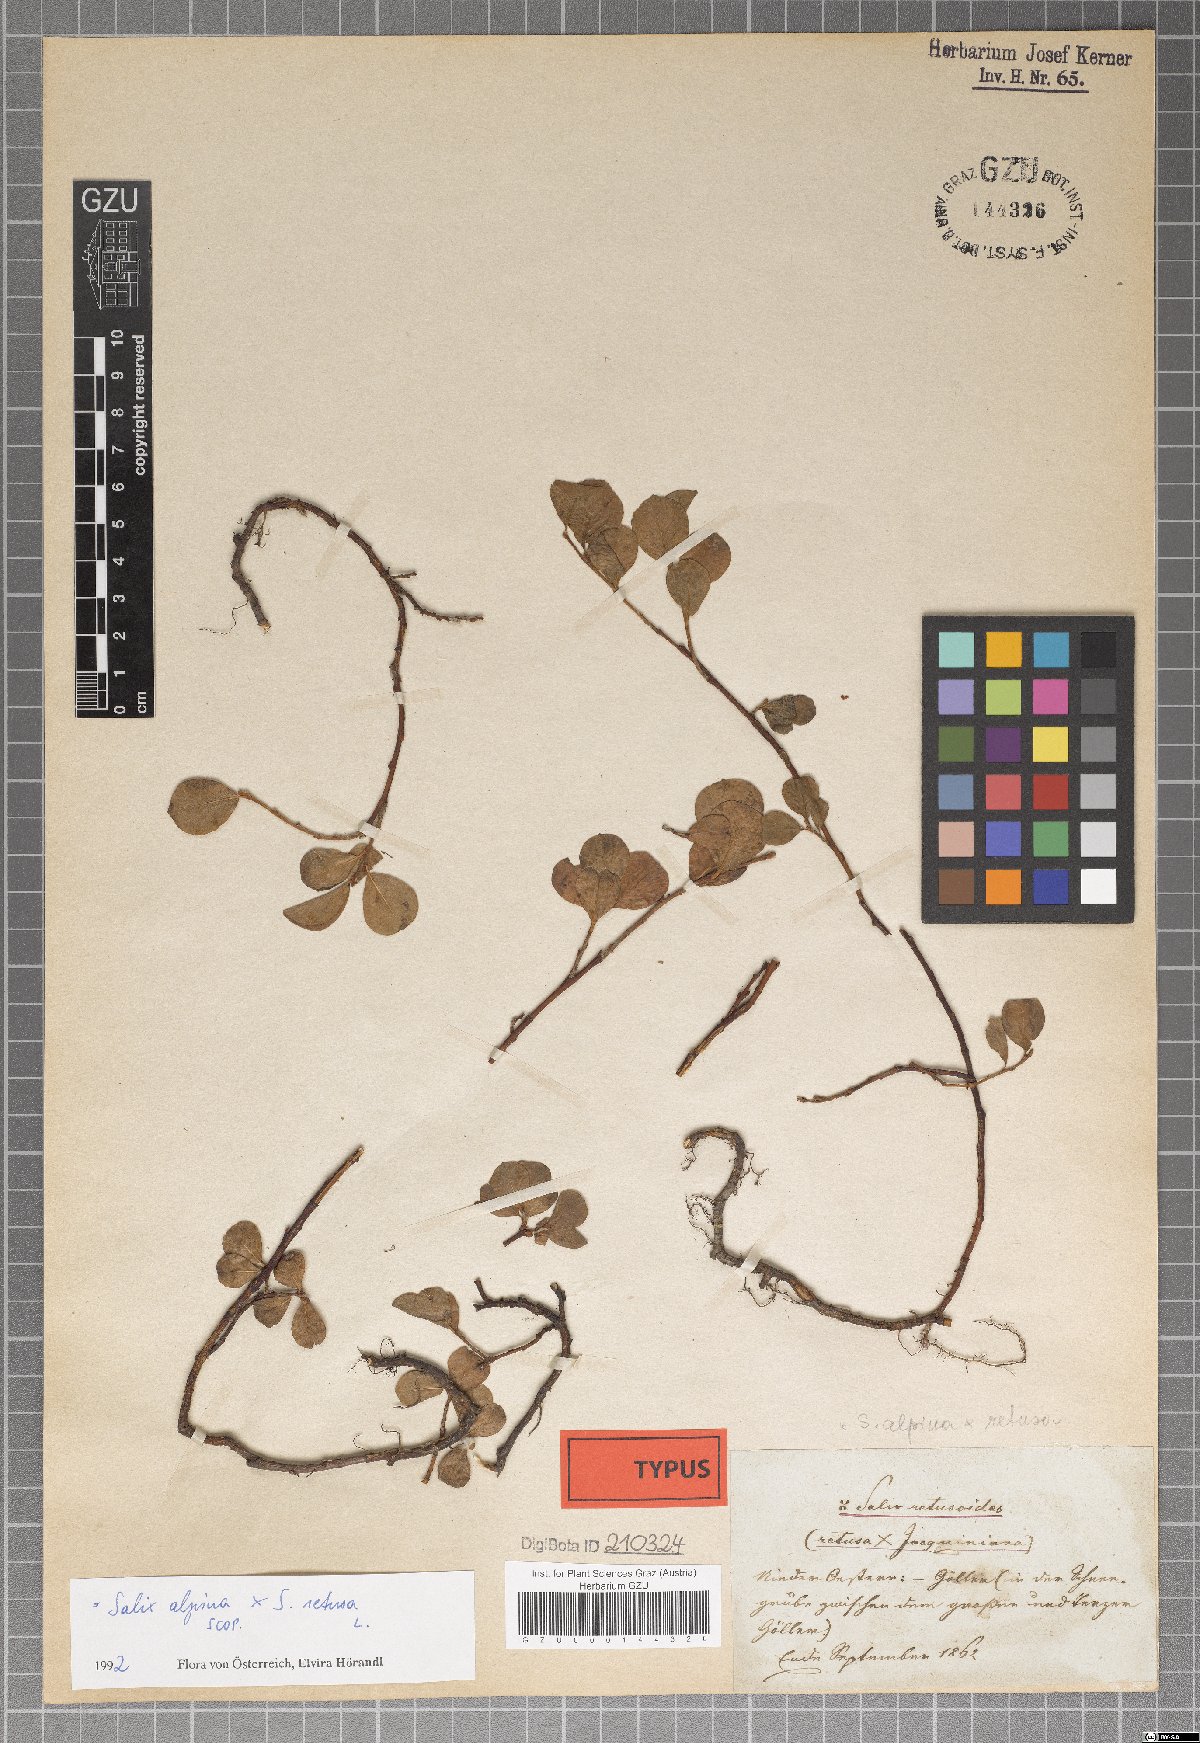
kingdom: Plantae
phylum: Tracheophyta
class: Magnoliopsida
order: Malpighiales
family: Salicaceae
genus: Salix
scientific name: Salix retusoides
